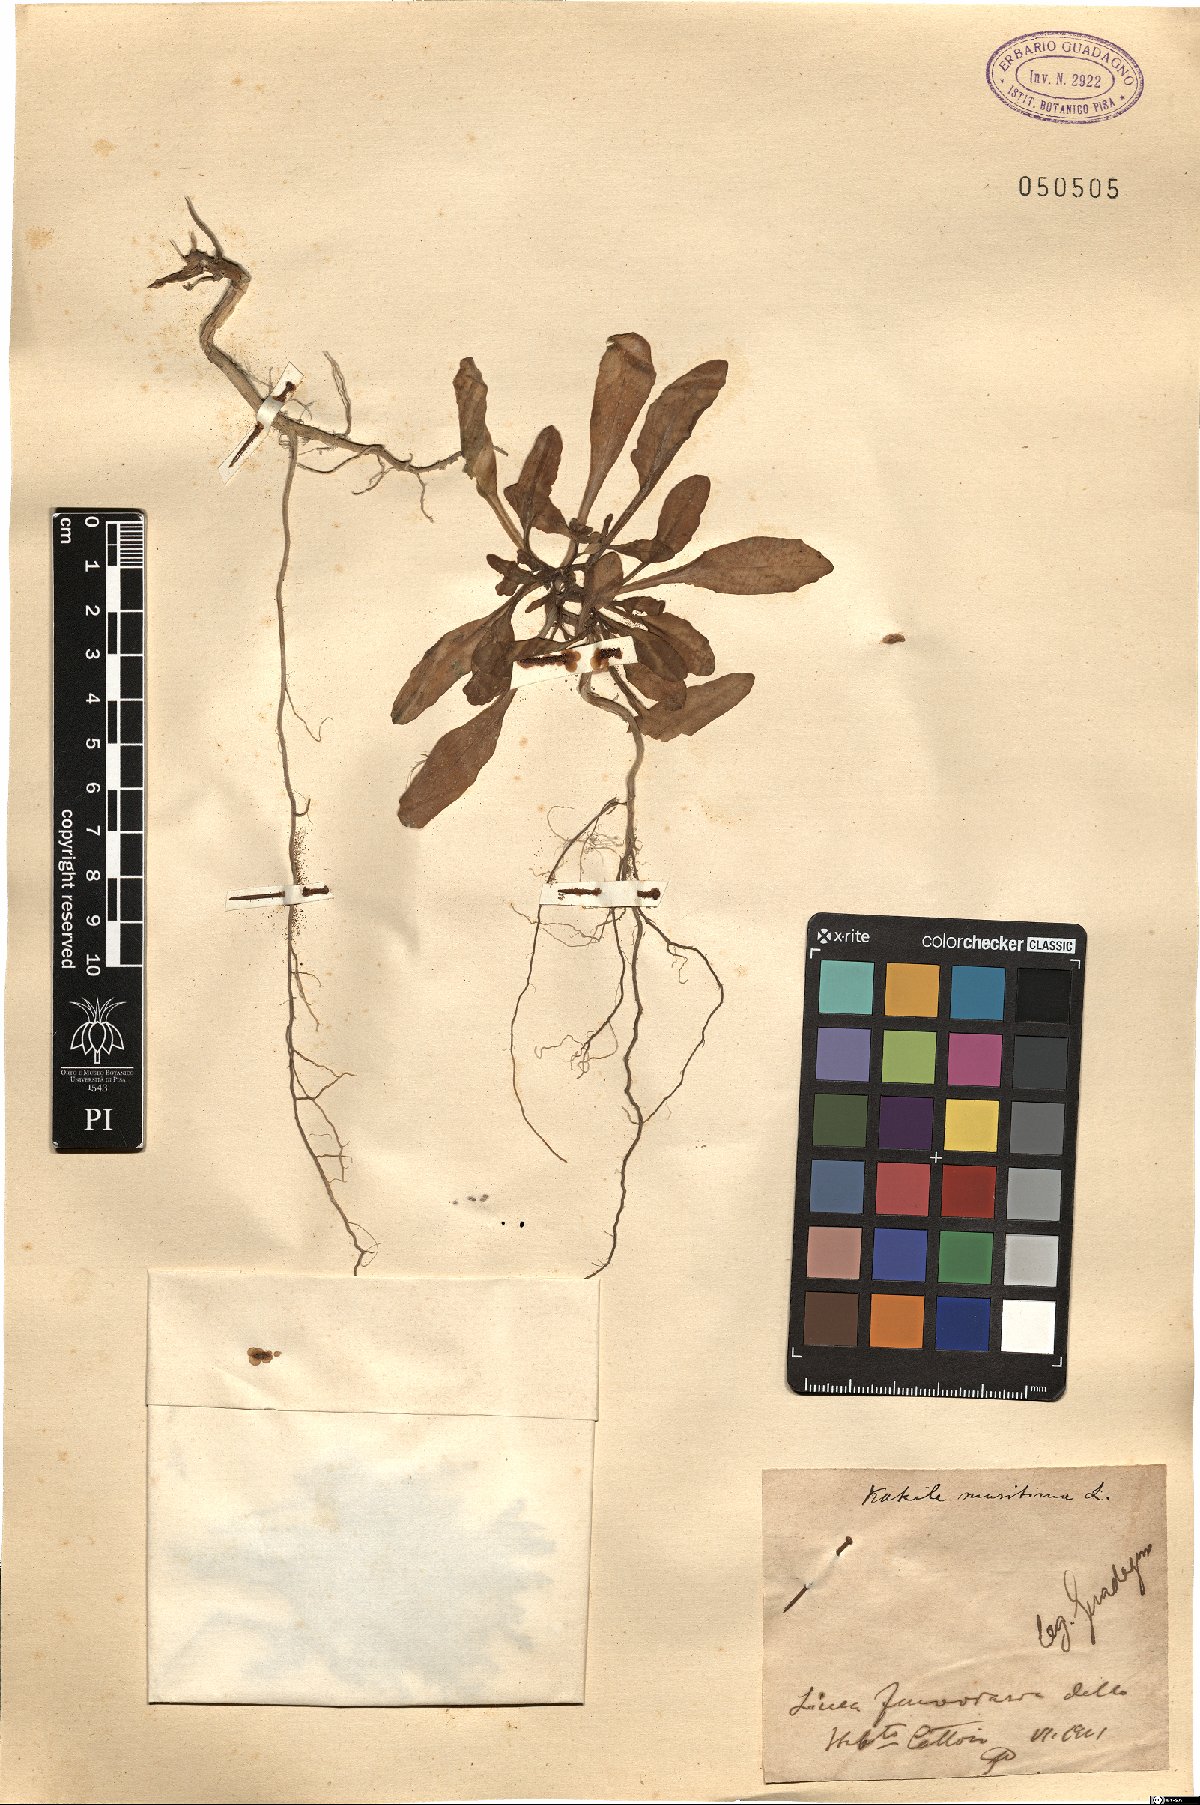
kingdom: Plantae
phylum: Tracheophyta
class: Magnoliopsida
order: Brassicales
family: Brassicaceae
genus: Cakile
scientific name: Cakile maritima
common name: Sea rocket
